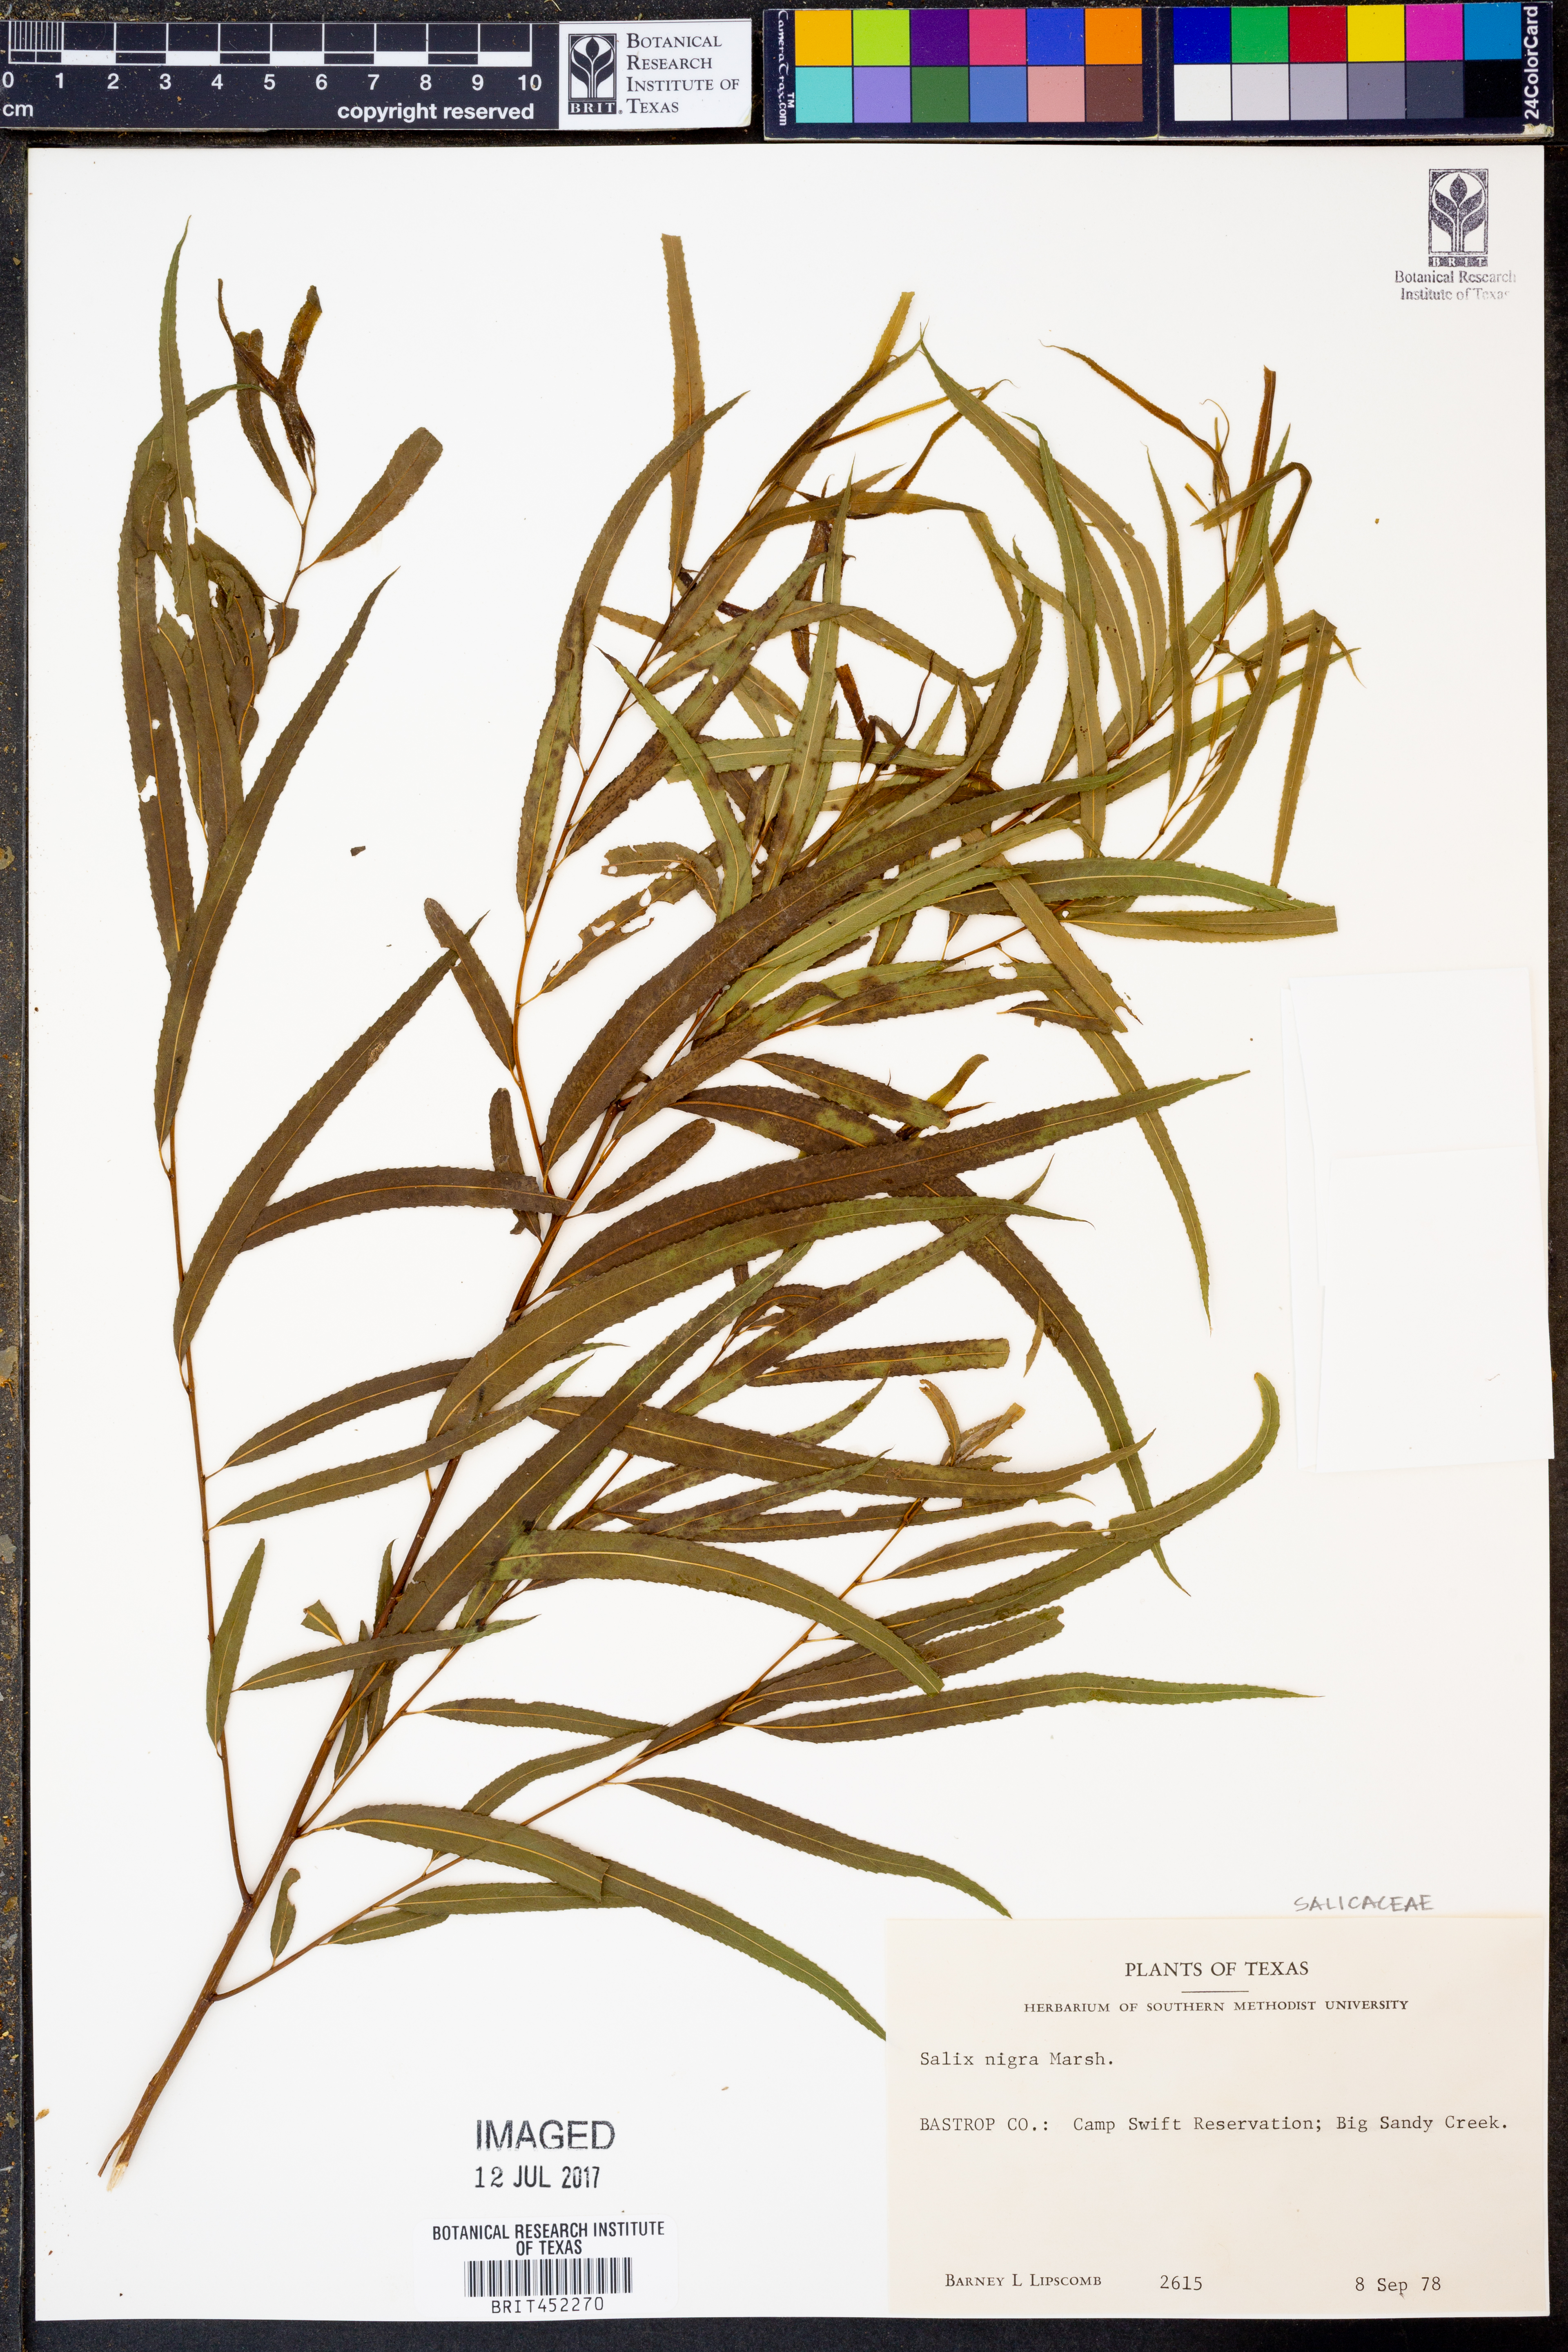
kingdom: Plantae
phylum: Tracheophyta
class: Magnoliopsida
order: Malpighiales
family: Salicaceae
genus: Salix
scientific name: Salix nigra
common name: Black willow
